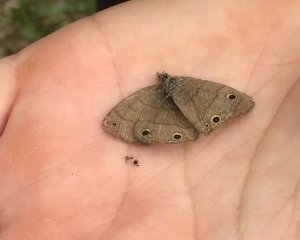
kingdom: Animalia
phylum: Arthropoda
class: Insecta
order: Lepidoptera
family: Nymphalidae
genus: Hermeuptychia
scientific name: Hermeuptychia hermes
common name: Carolina Satyr
